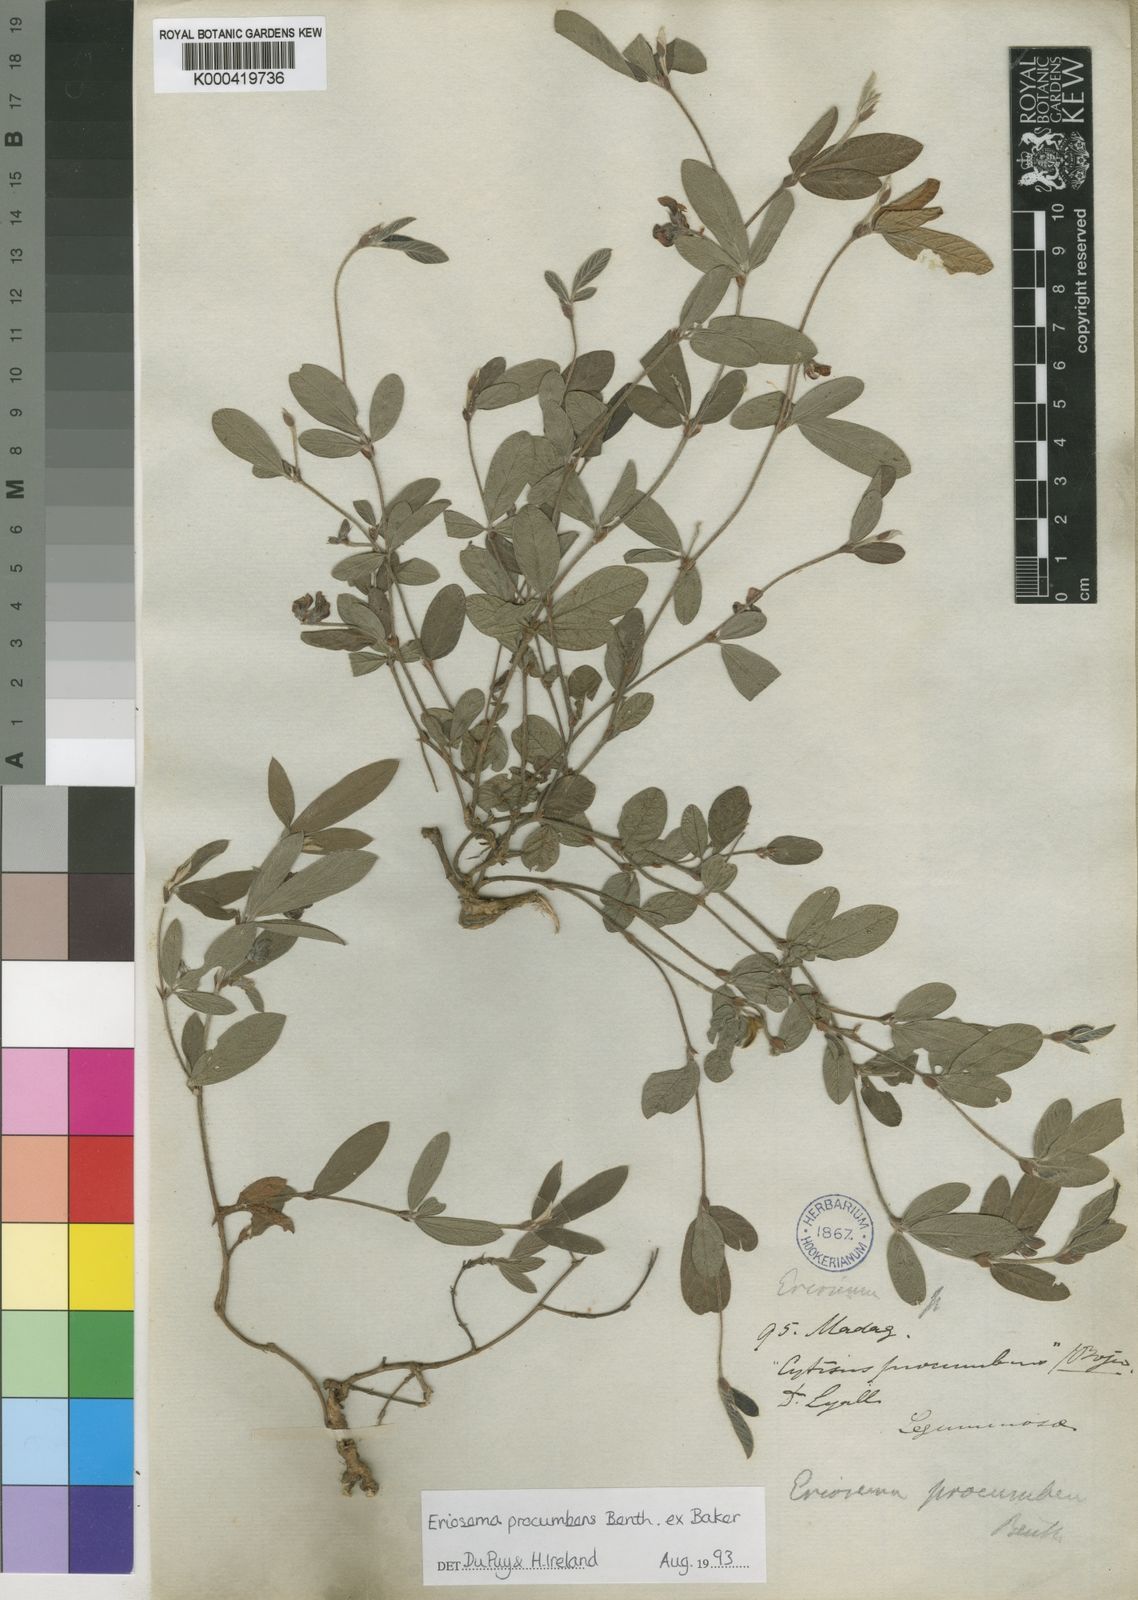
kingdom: Plantae
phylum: Tracheophyta
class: Magnoliopsida
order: Fabales
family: Fabaceae
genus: Eriosema
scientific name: Eriosema procumbens
